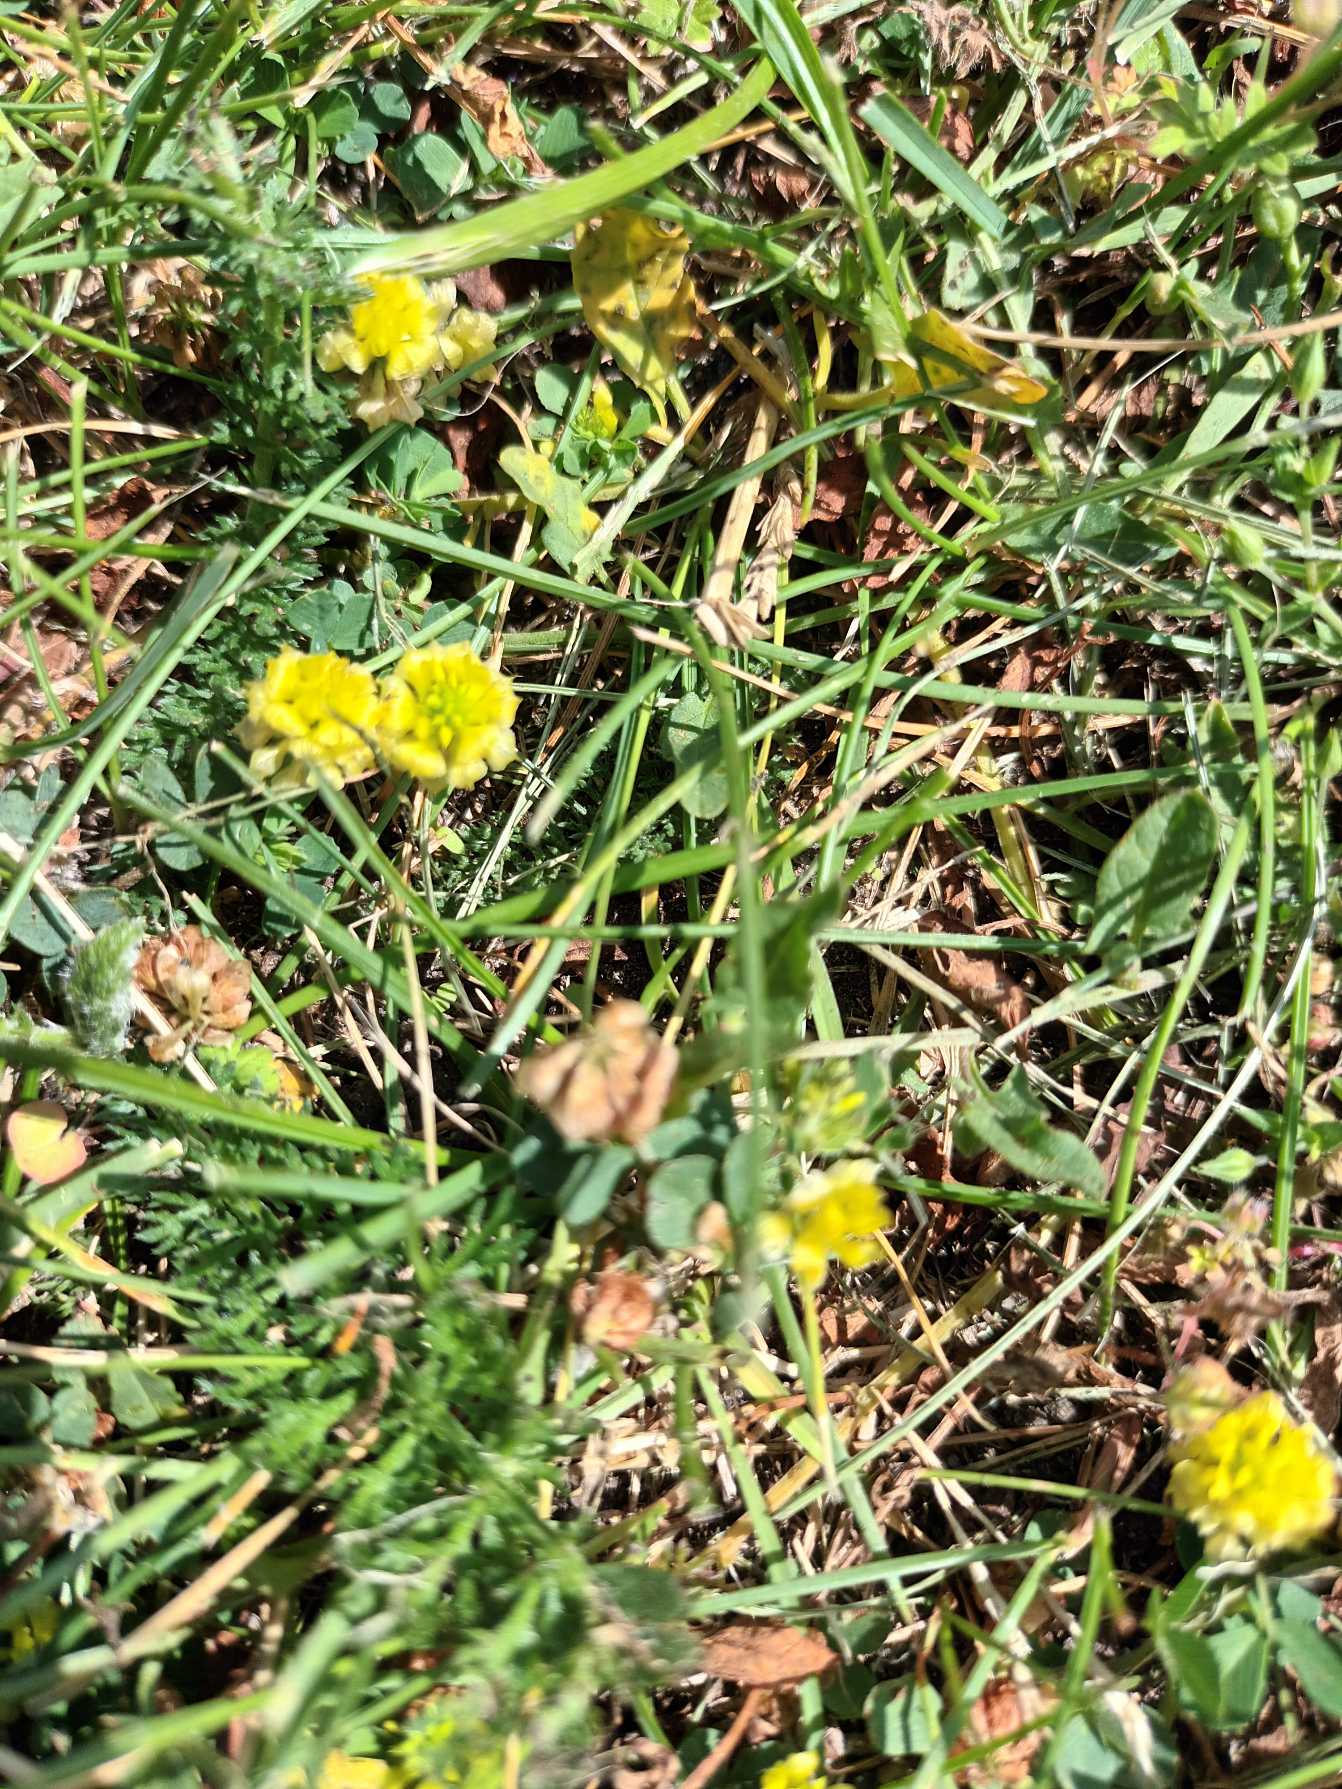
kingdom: Plantae
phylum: Tracheophyta
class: Magnoliopsida
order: Fabales
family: Fabaceae
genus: Trifolium
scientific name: Trifolium campestre
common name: Gul kløver
